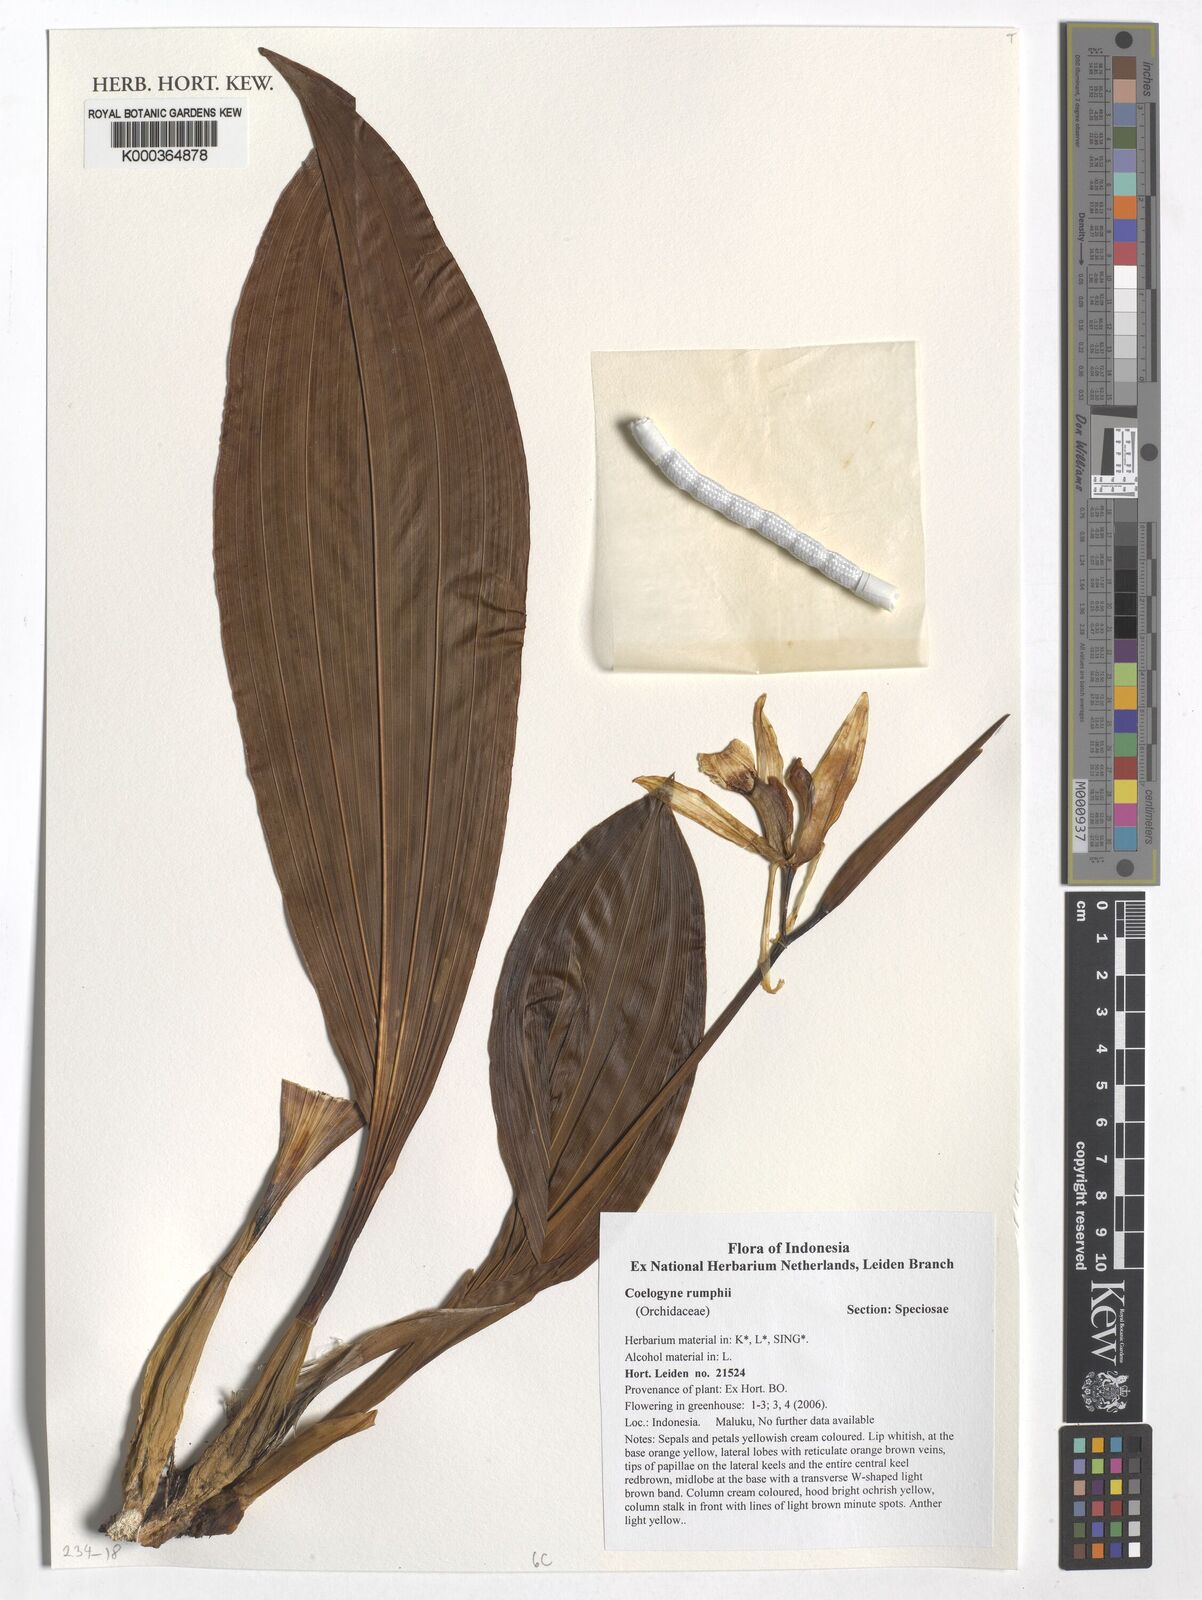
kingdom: Plantae
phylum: Tracheophyta
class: Liliopsida
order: Asparagales
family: Orchidaceae
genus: Coelogyne
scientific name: Coelogyne rumphii
